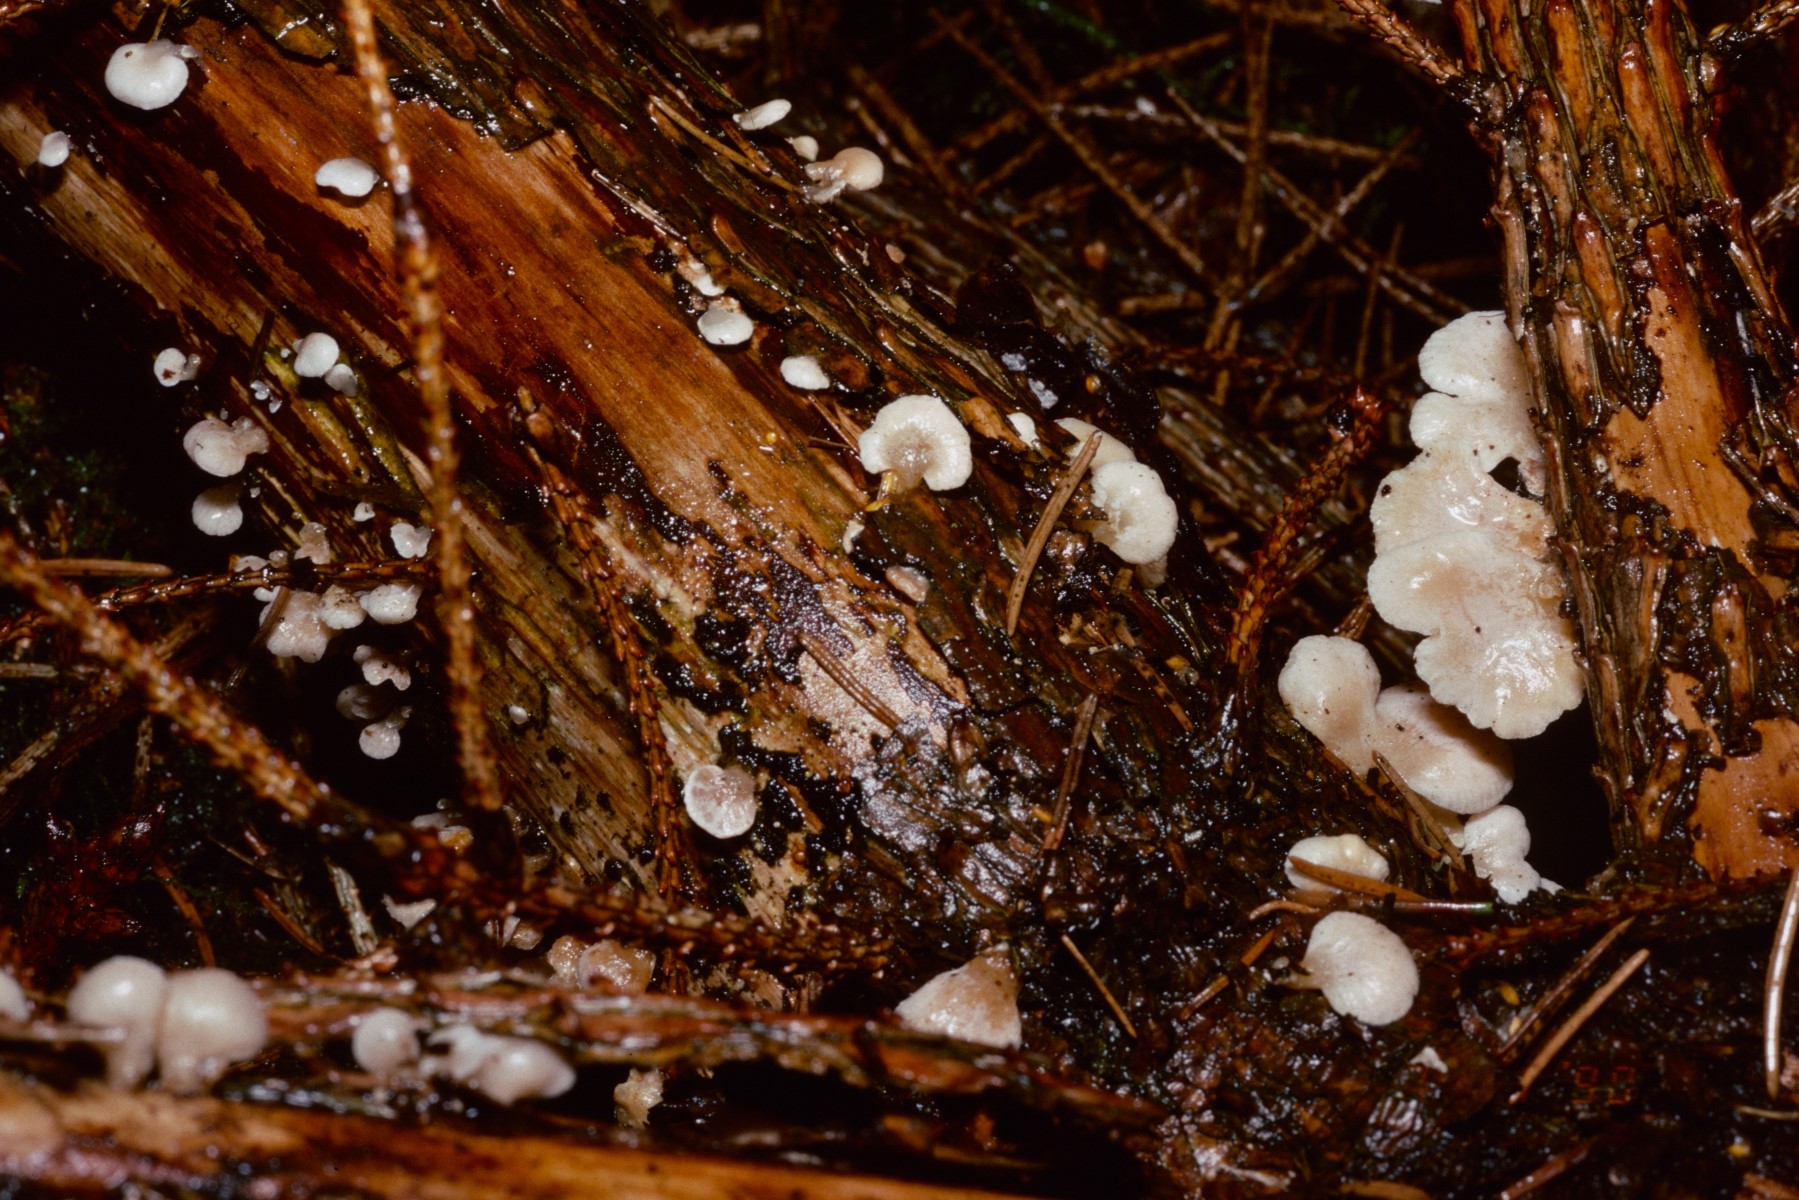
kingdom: Fungi
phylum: Basidiomycota
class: Agaricomycetes
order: Agaricales
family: Mycenaceae
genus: Panellus
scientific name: Panellus mitis
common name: mild epaulethat
